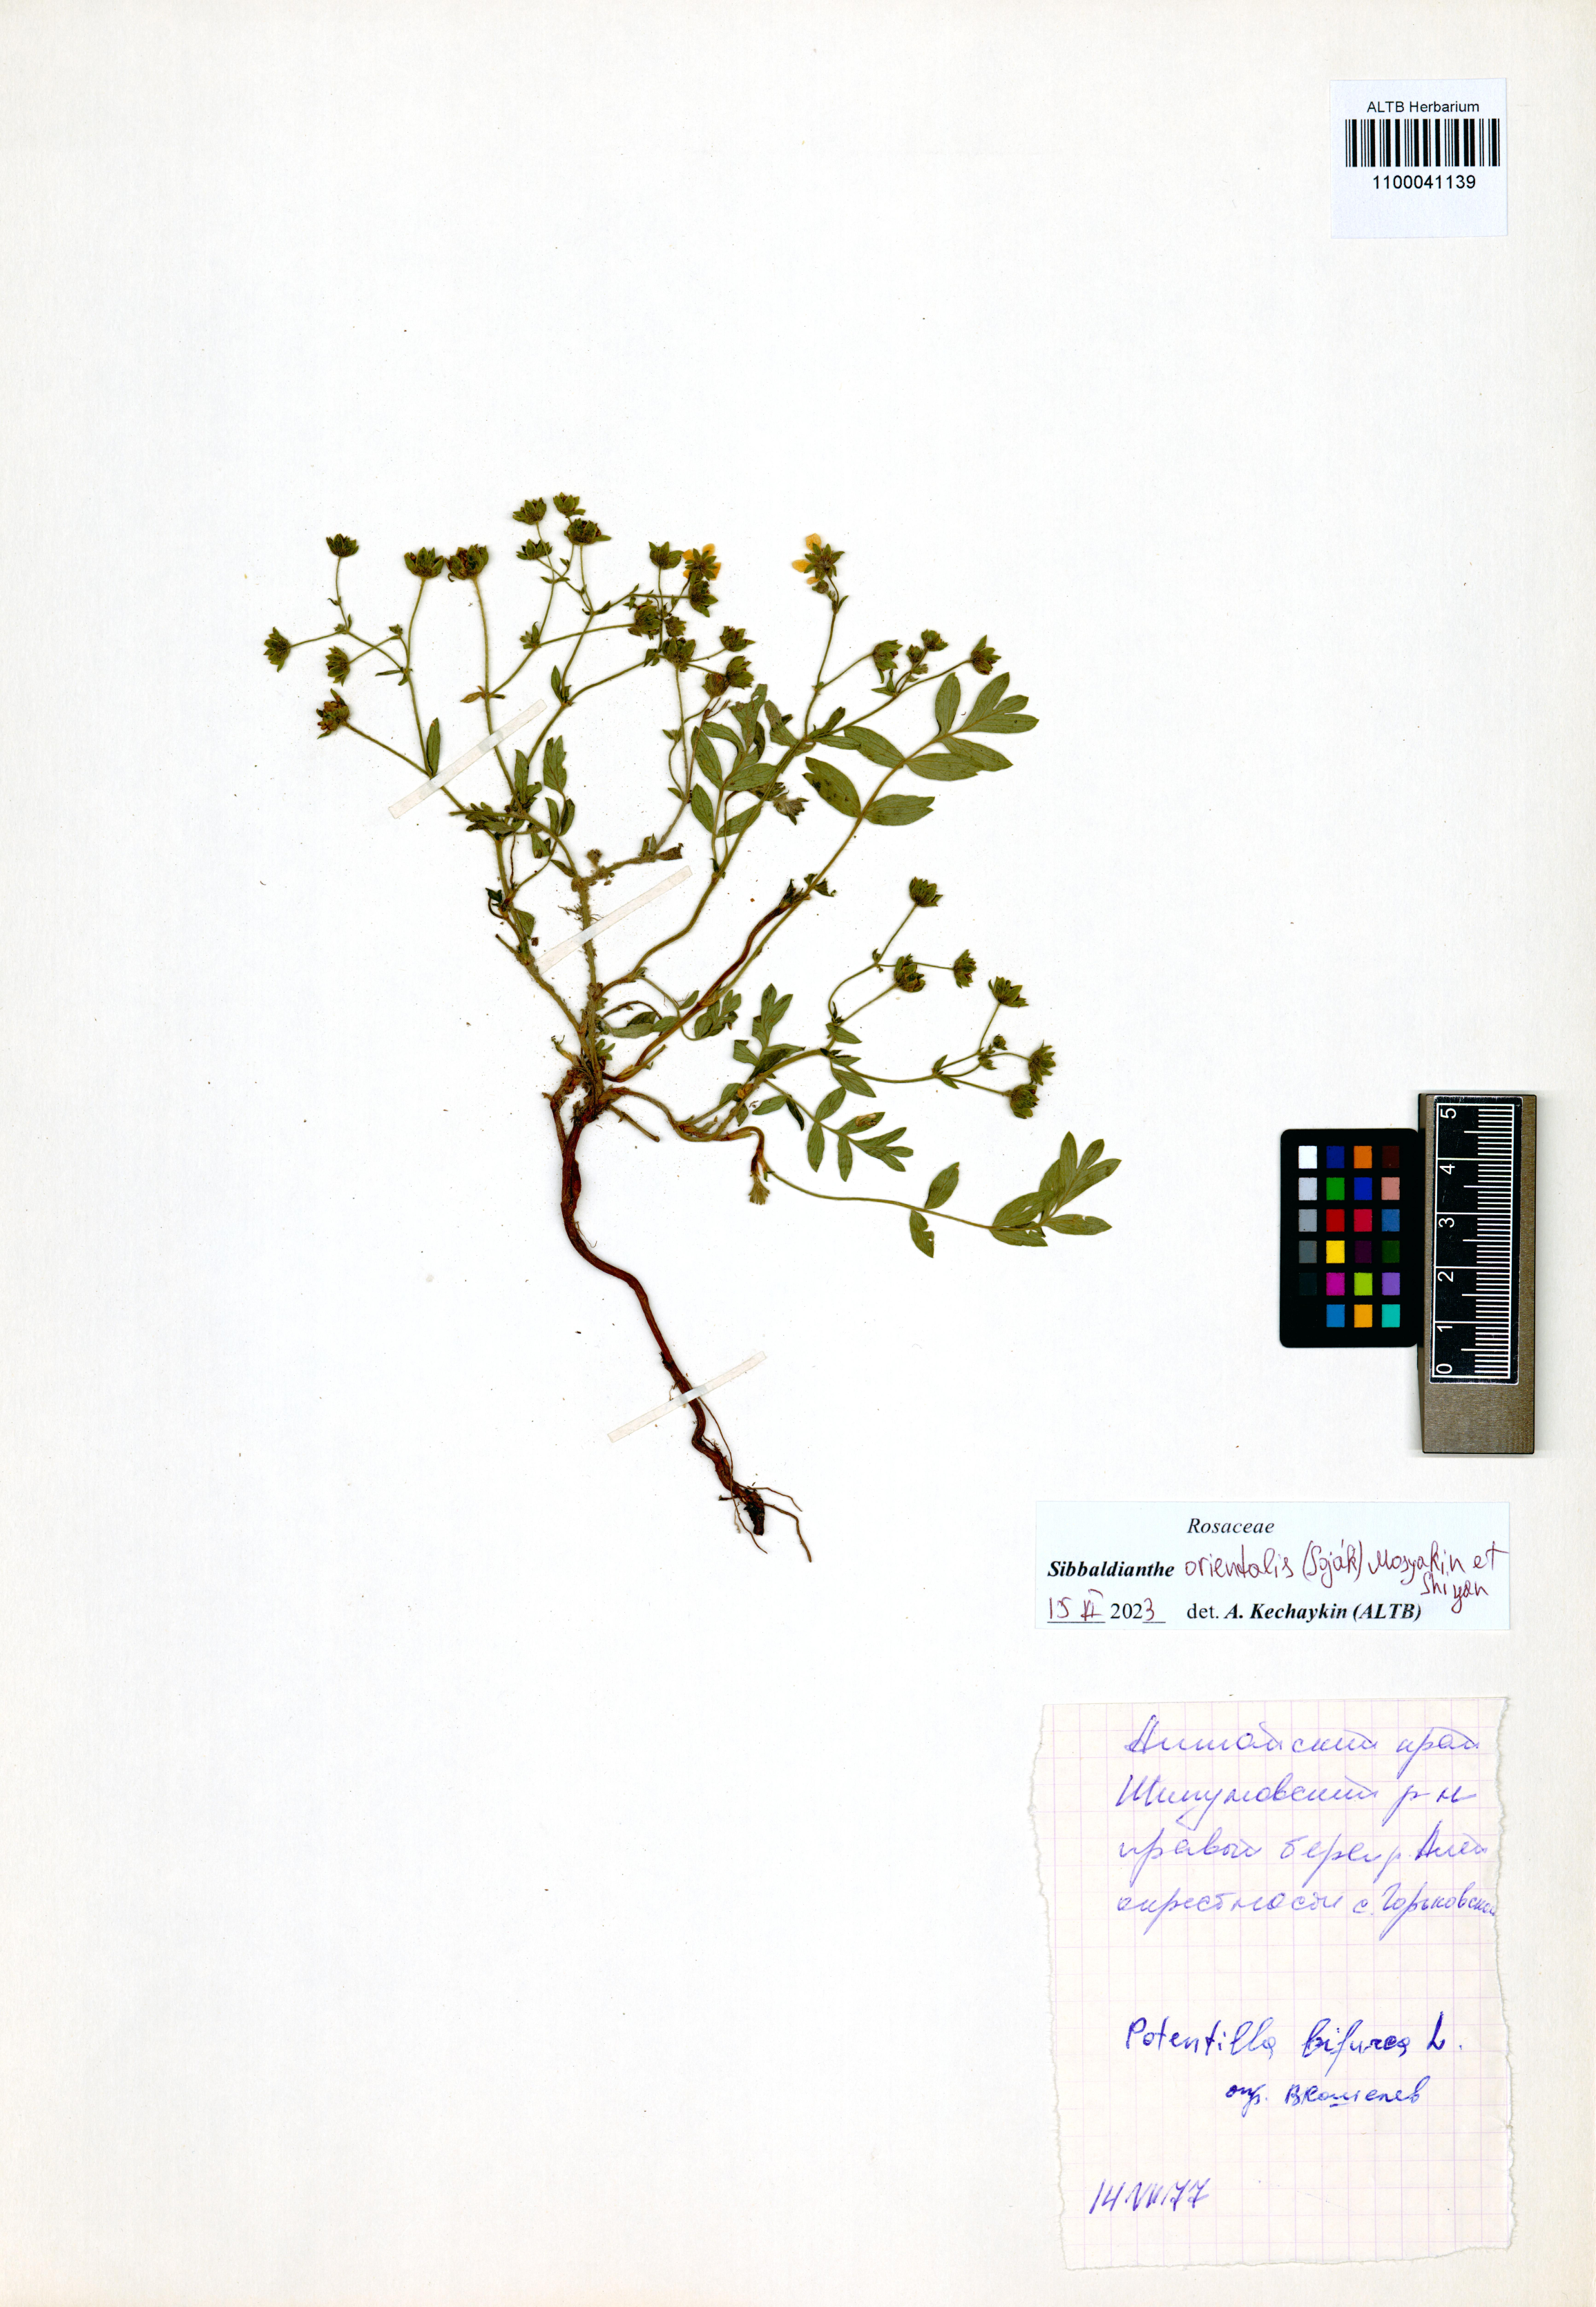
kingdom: Plantae
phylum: Tracheophyta
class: Magnoliopsida
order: Rosales
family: Rosaceae
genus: Sibbaldianthe
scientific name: Sibbaldianthe orientalis
